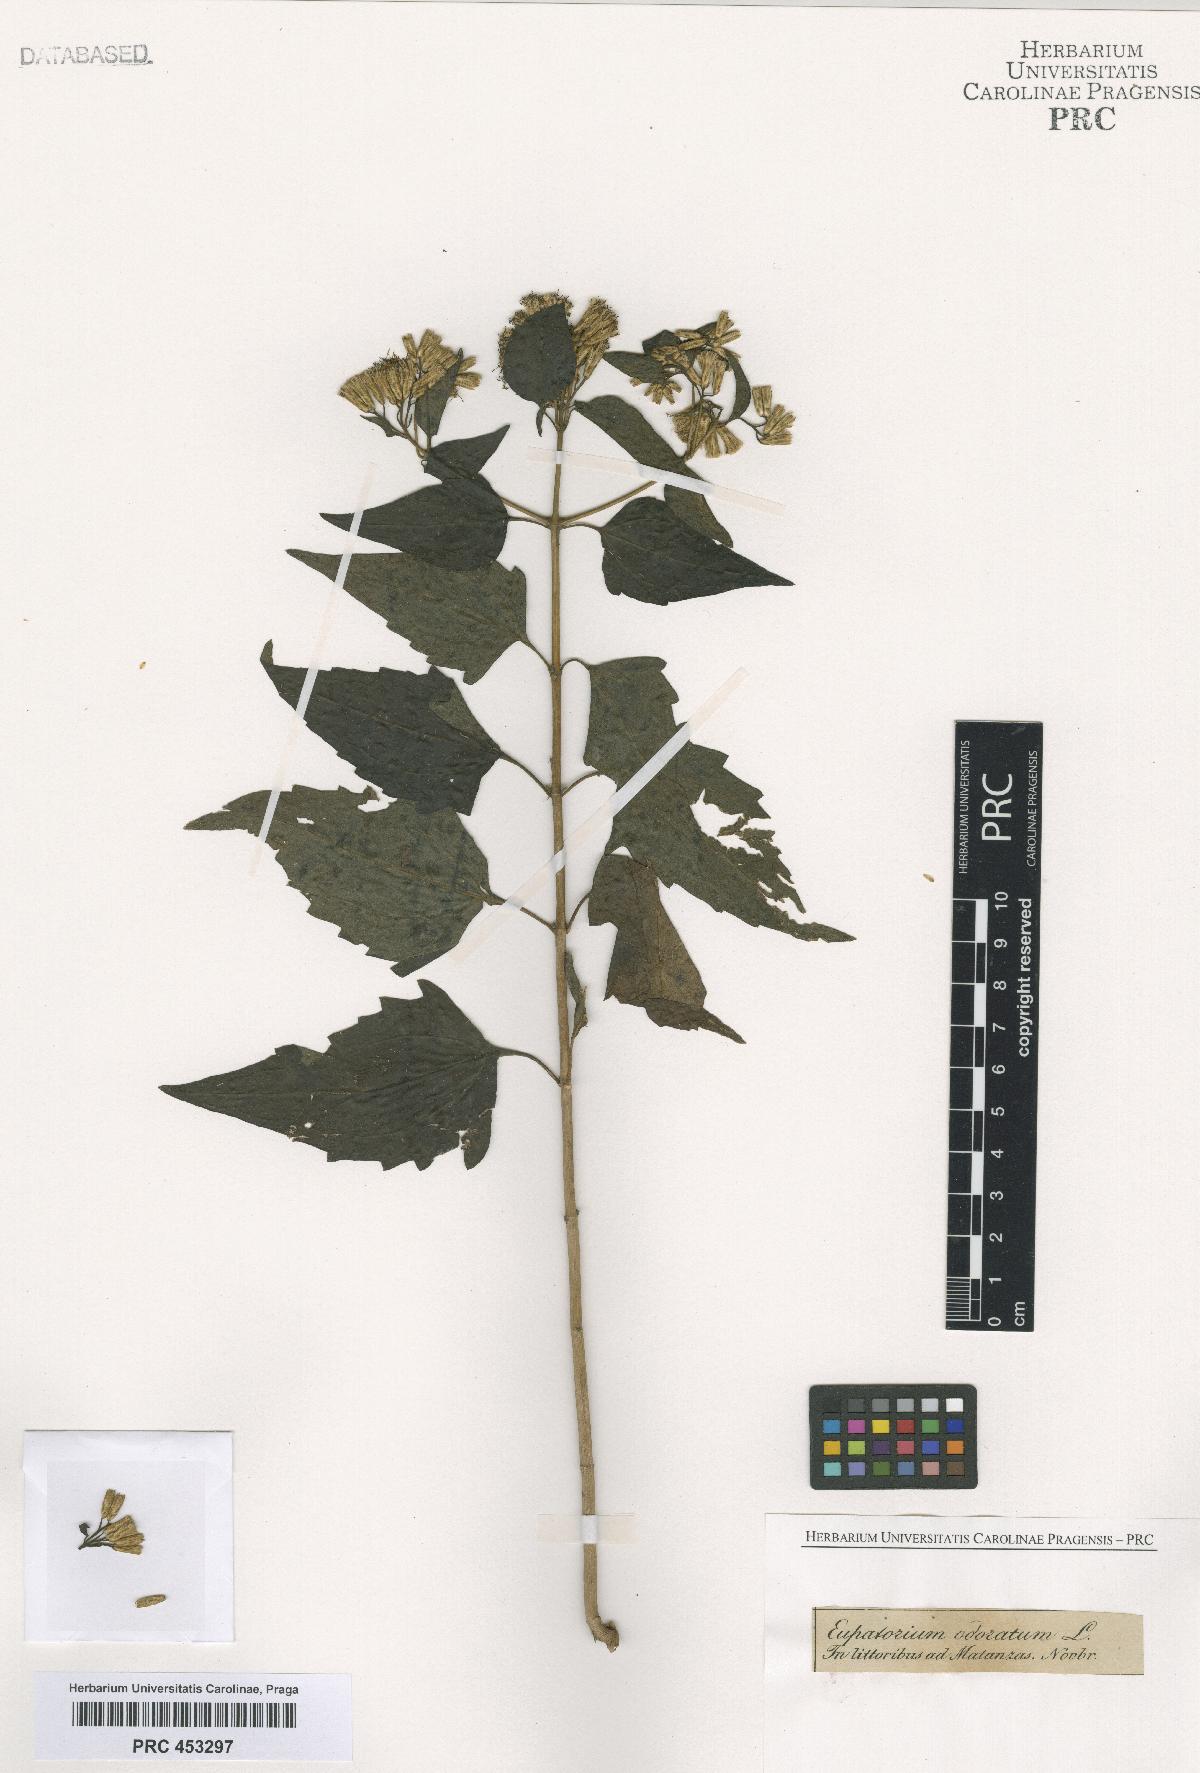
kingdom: Plantae
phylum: Tracheophyta
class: Magnoliopsida
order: Asterales
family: Asteraceae
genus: Chromolaena
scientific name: Chromolaena odorata
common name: Siamweed
